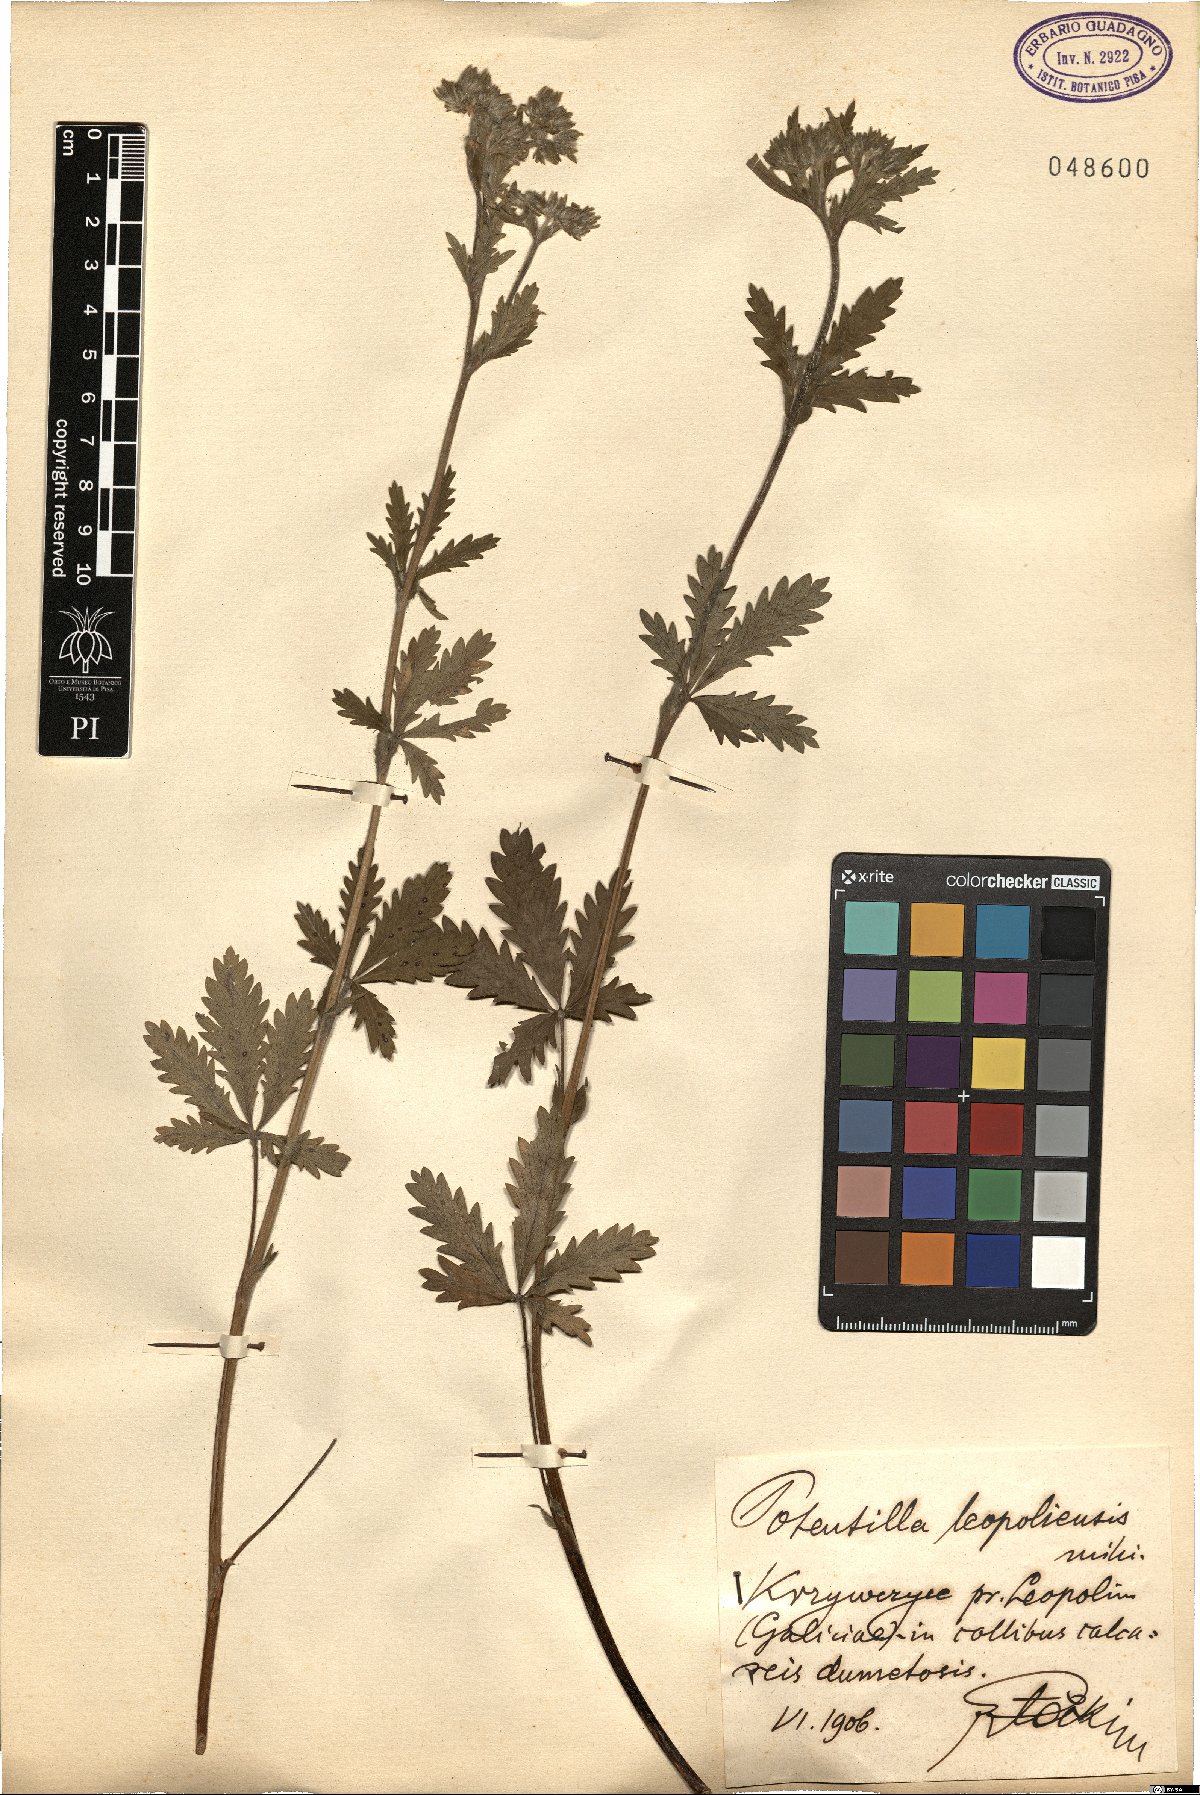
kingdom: Plantae
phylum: Tracheophyta
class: Magnoliopsida
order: Rosales
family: Rosaceae
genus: Potentilla
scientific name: Potentilla inclinata
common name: Grey cinquefoil
